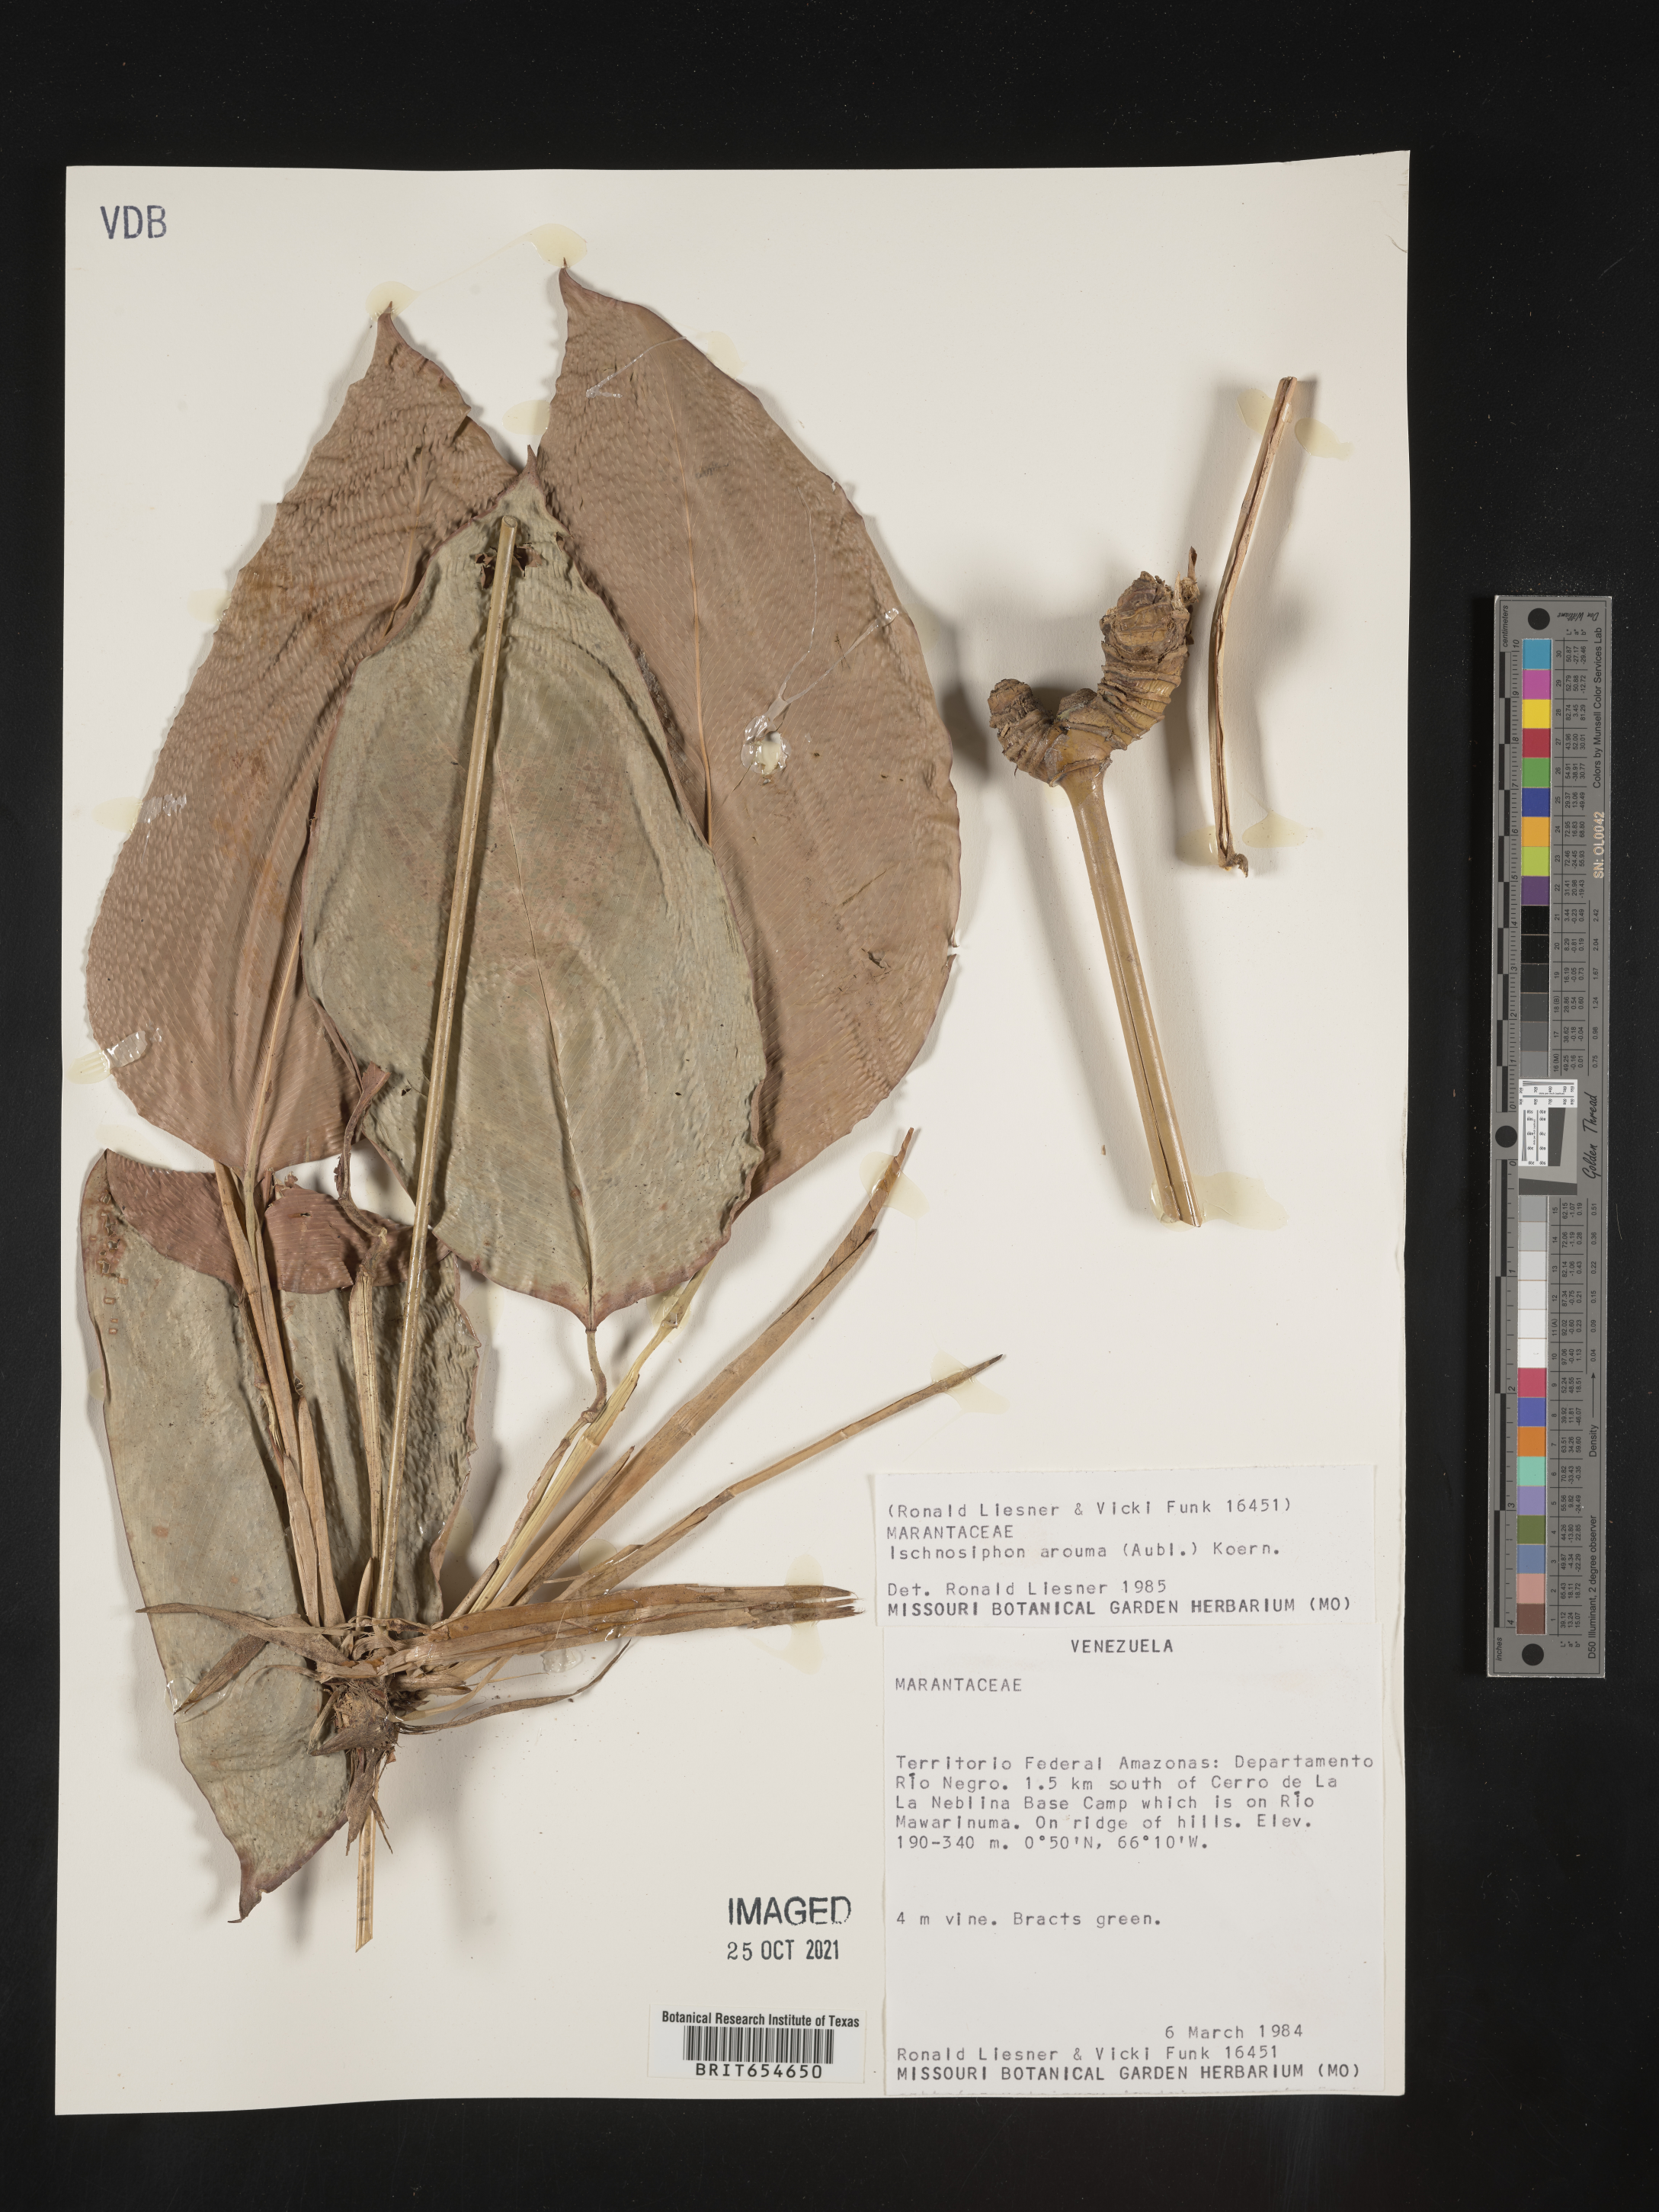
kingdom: Plantae
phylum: Tracheophyta
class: Liliopsida
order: Zingiberales
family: Marantaceae
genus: Maranta
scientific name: Maranta
